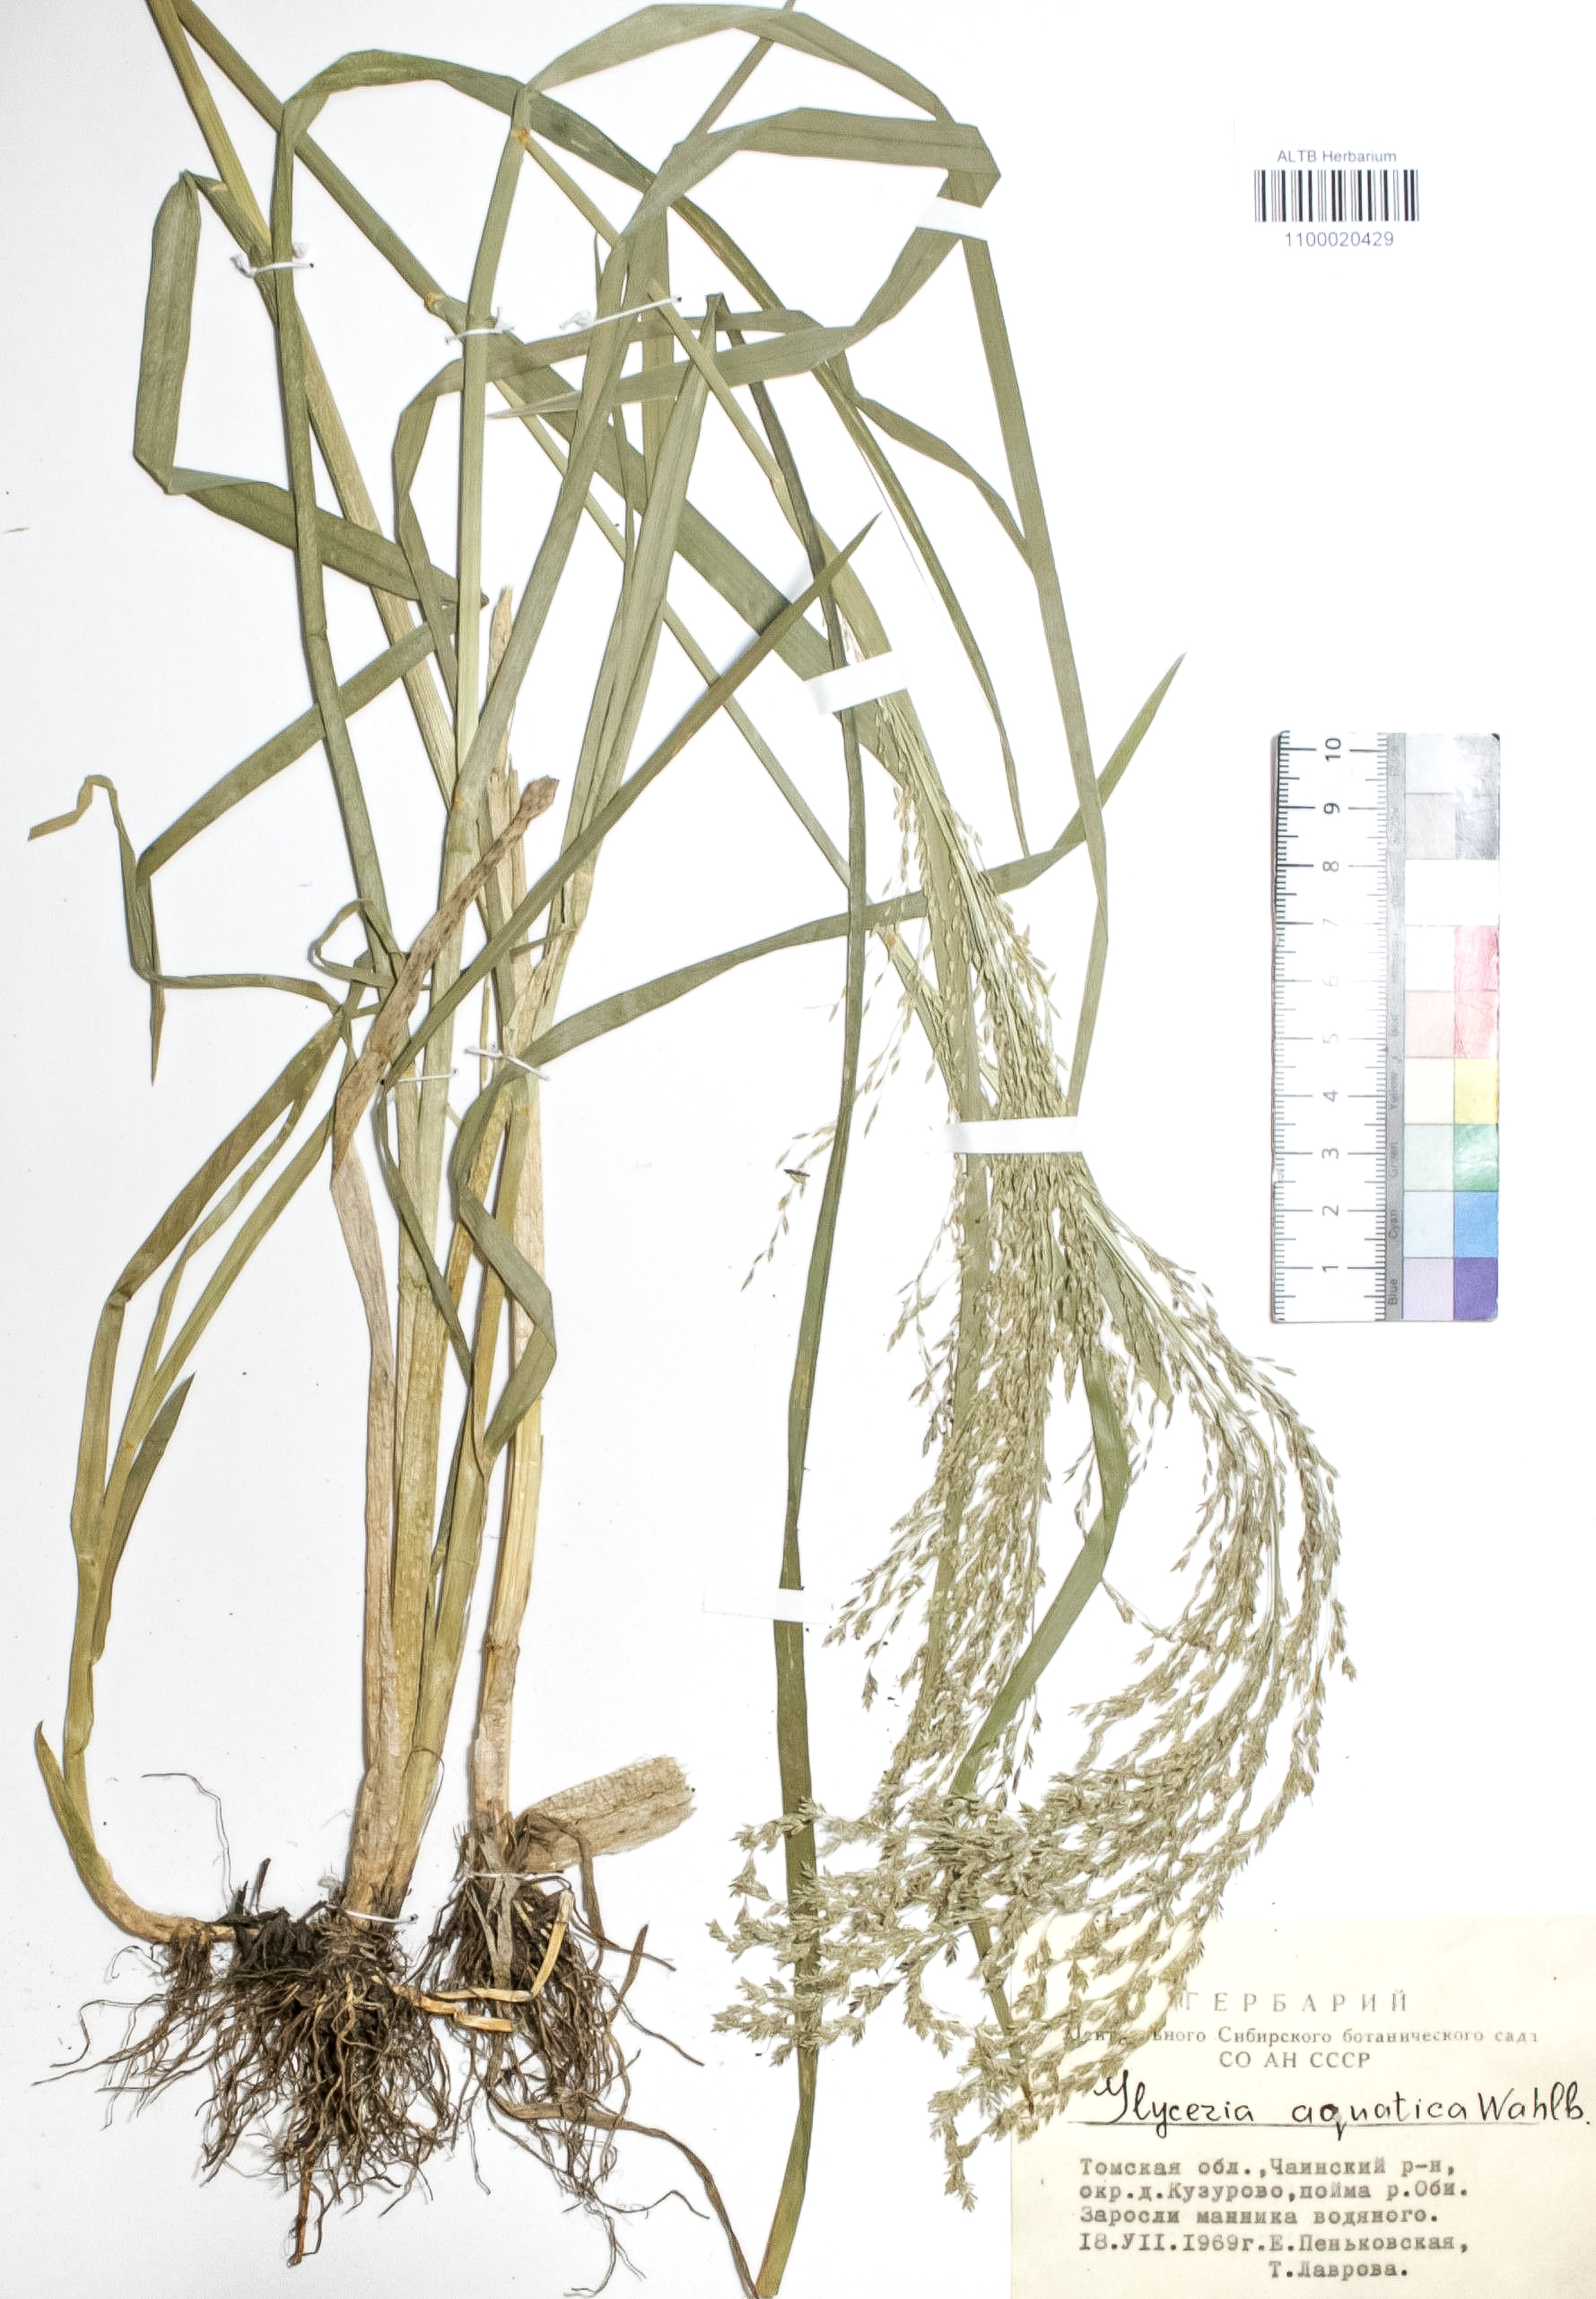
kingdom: Plantae
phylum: Tracheophyta
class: Liliopsida
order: Poales
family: Poaceae
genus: Glyceria
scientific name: Glyceria maxima
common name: Reed mannagrass
